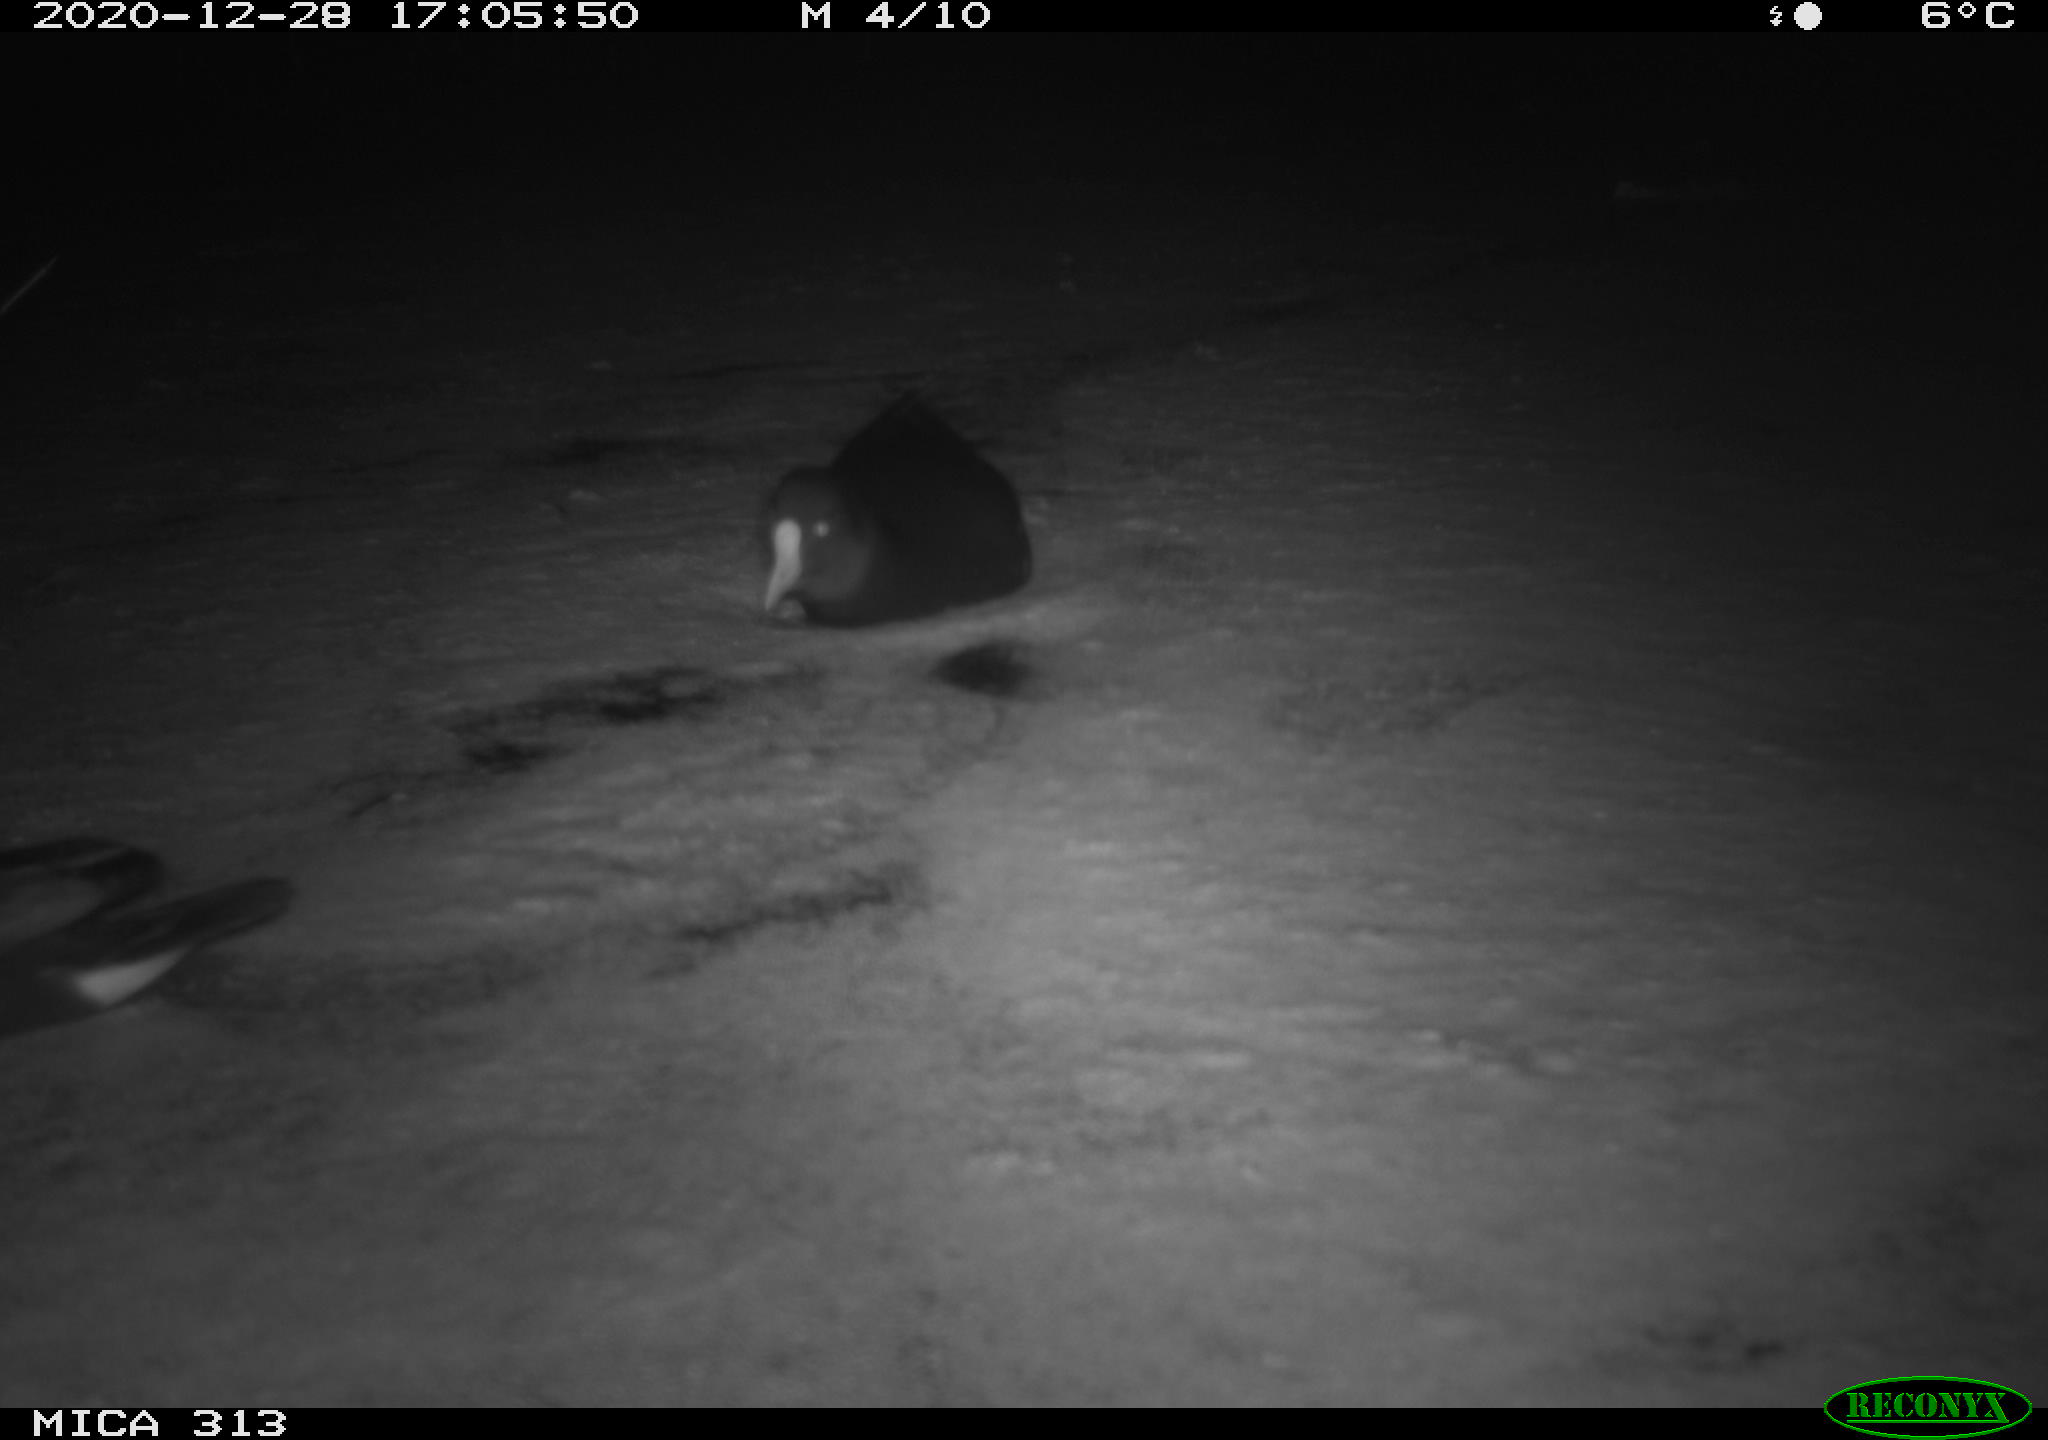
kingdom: Animalia
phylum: Chordata
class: Aves
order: Gruiformes
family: Rallidae
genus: Gallinula
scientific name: Gallinula chloropus
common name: Common moorhen
